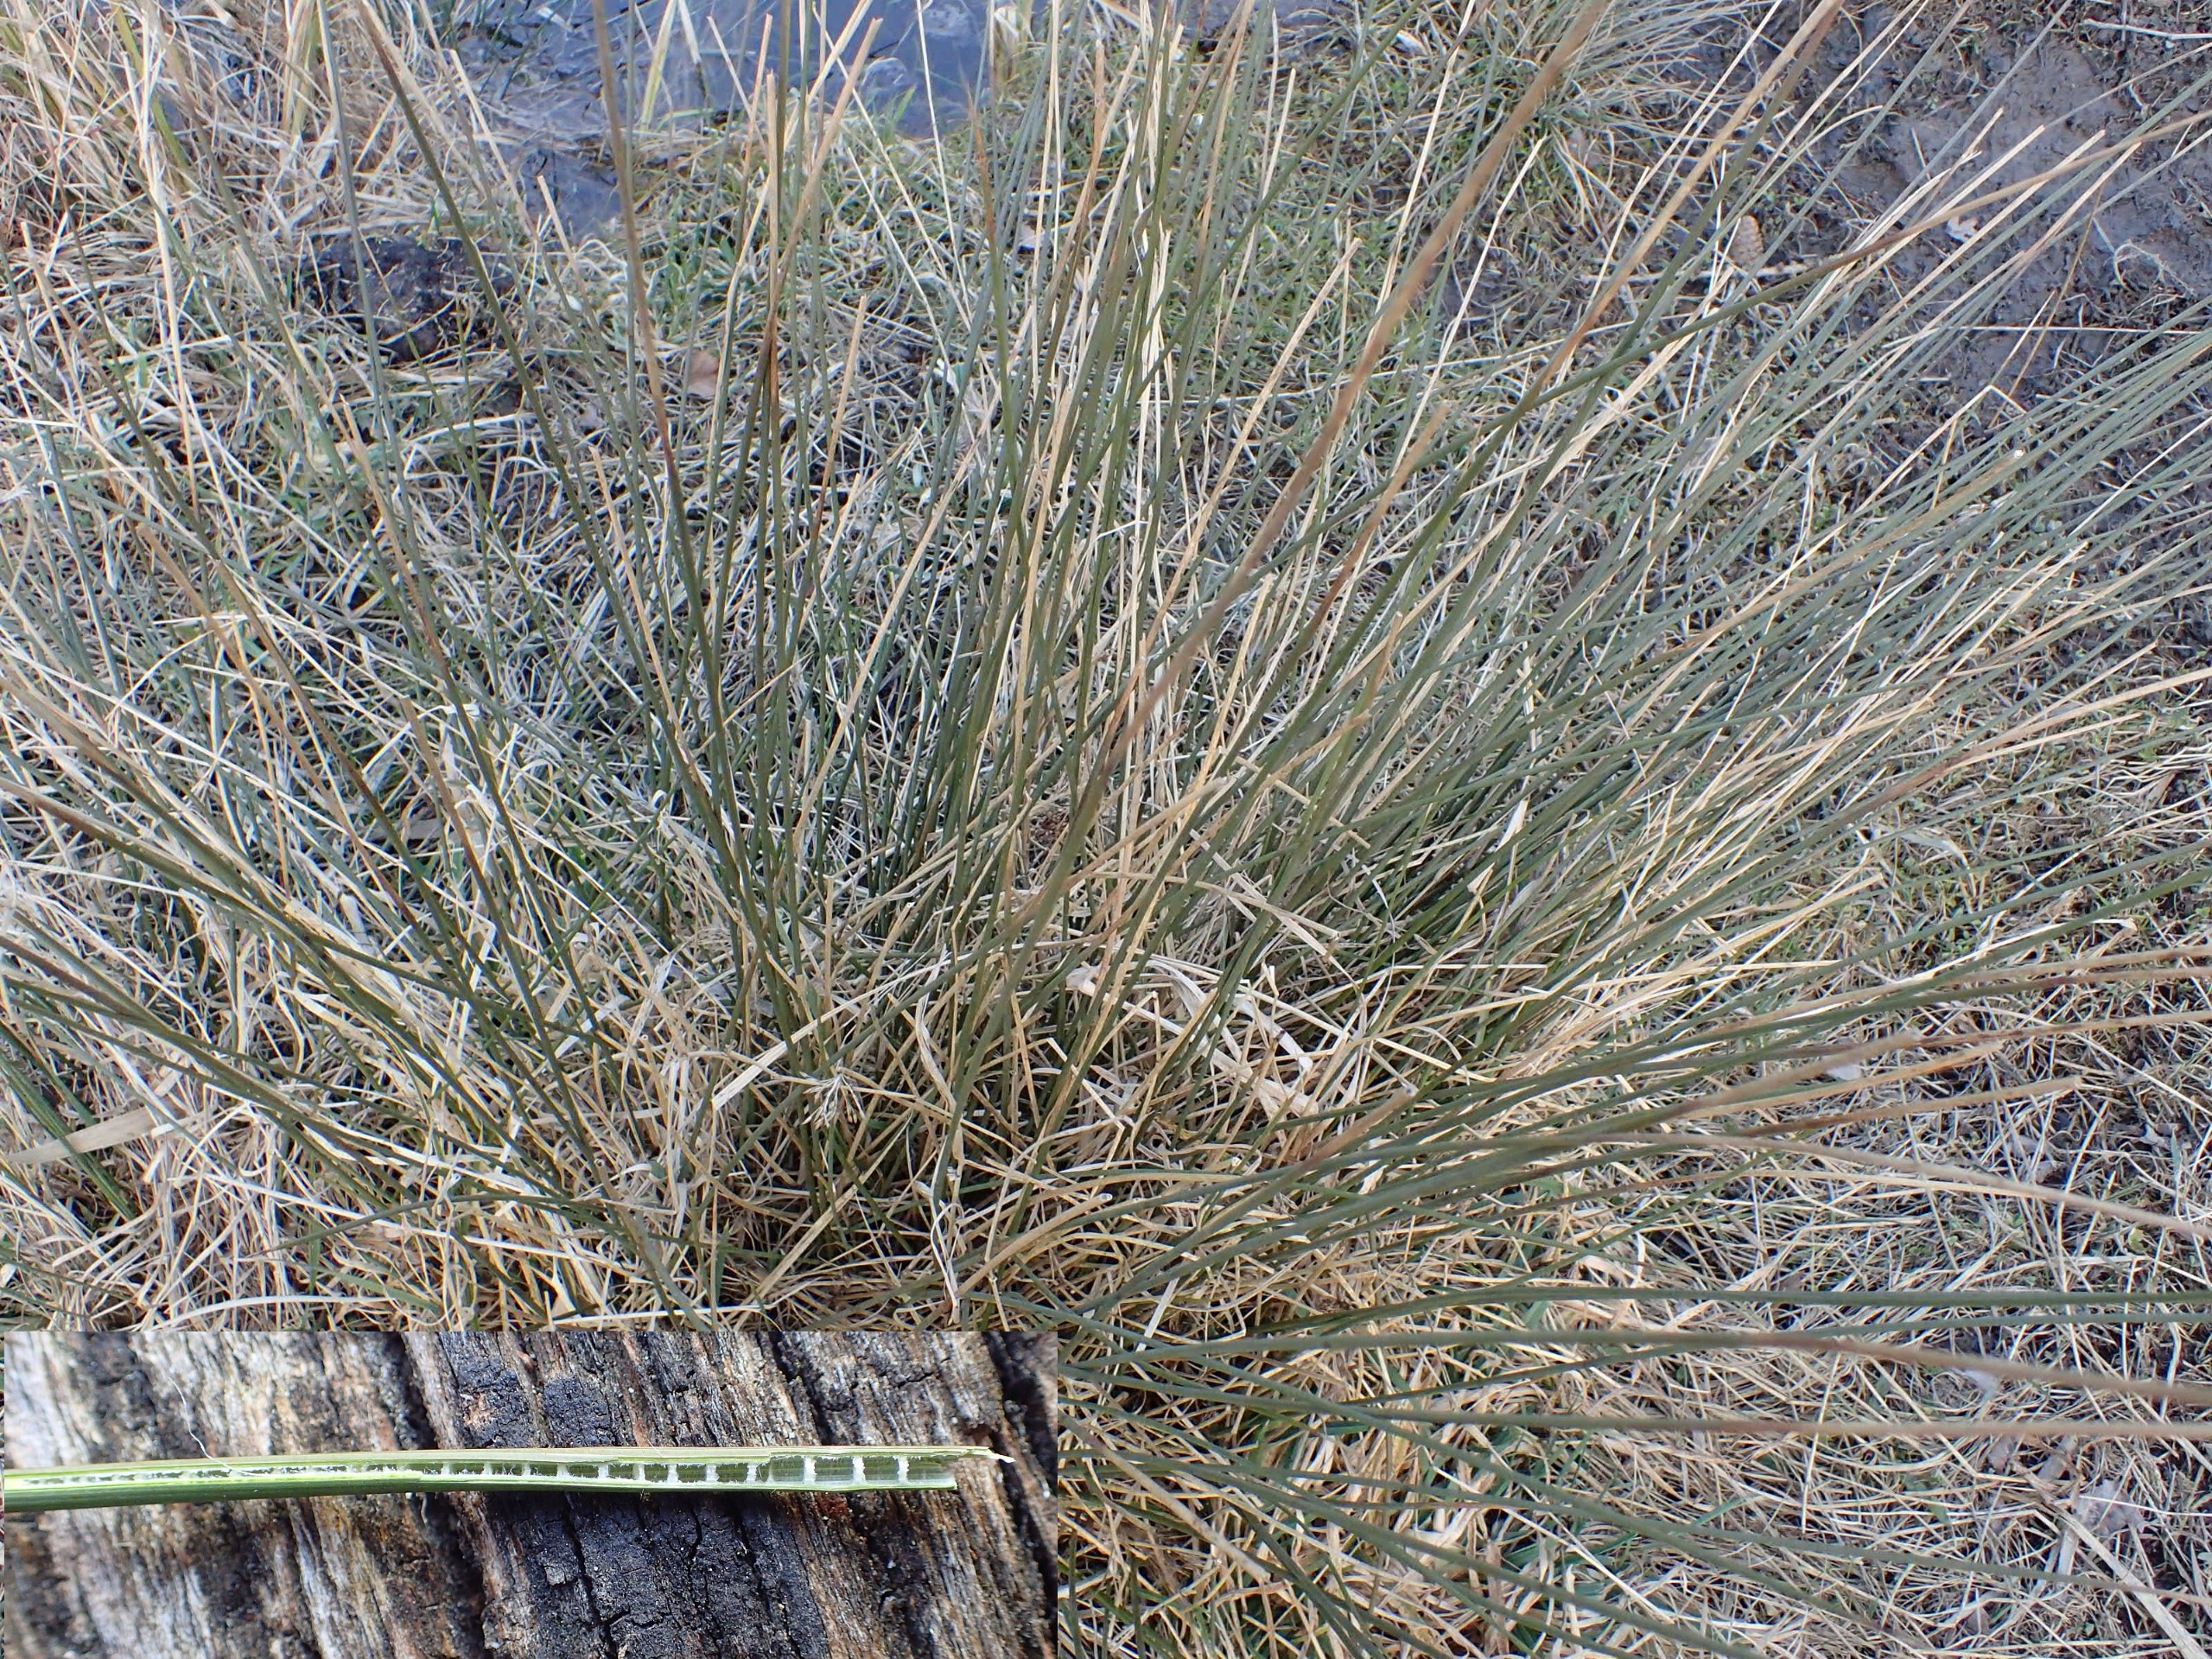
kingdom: Plantae
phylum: Tracheophyta
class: Liliopsida
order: Poales
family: Juncaceae
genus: Juncus
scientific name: Juncus inflexus
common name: Blågrå siv
